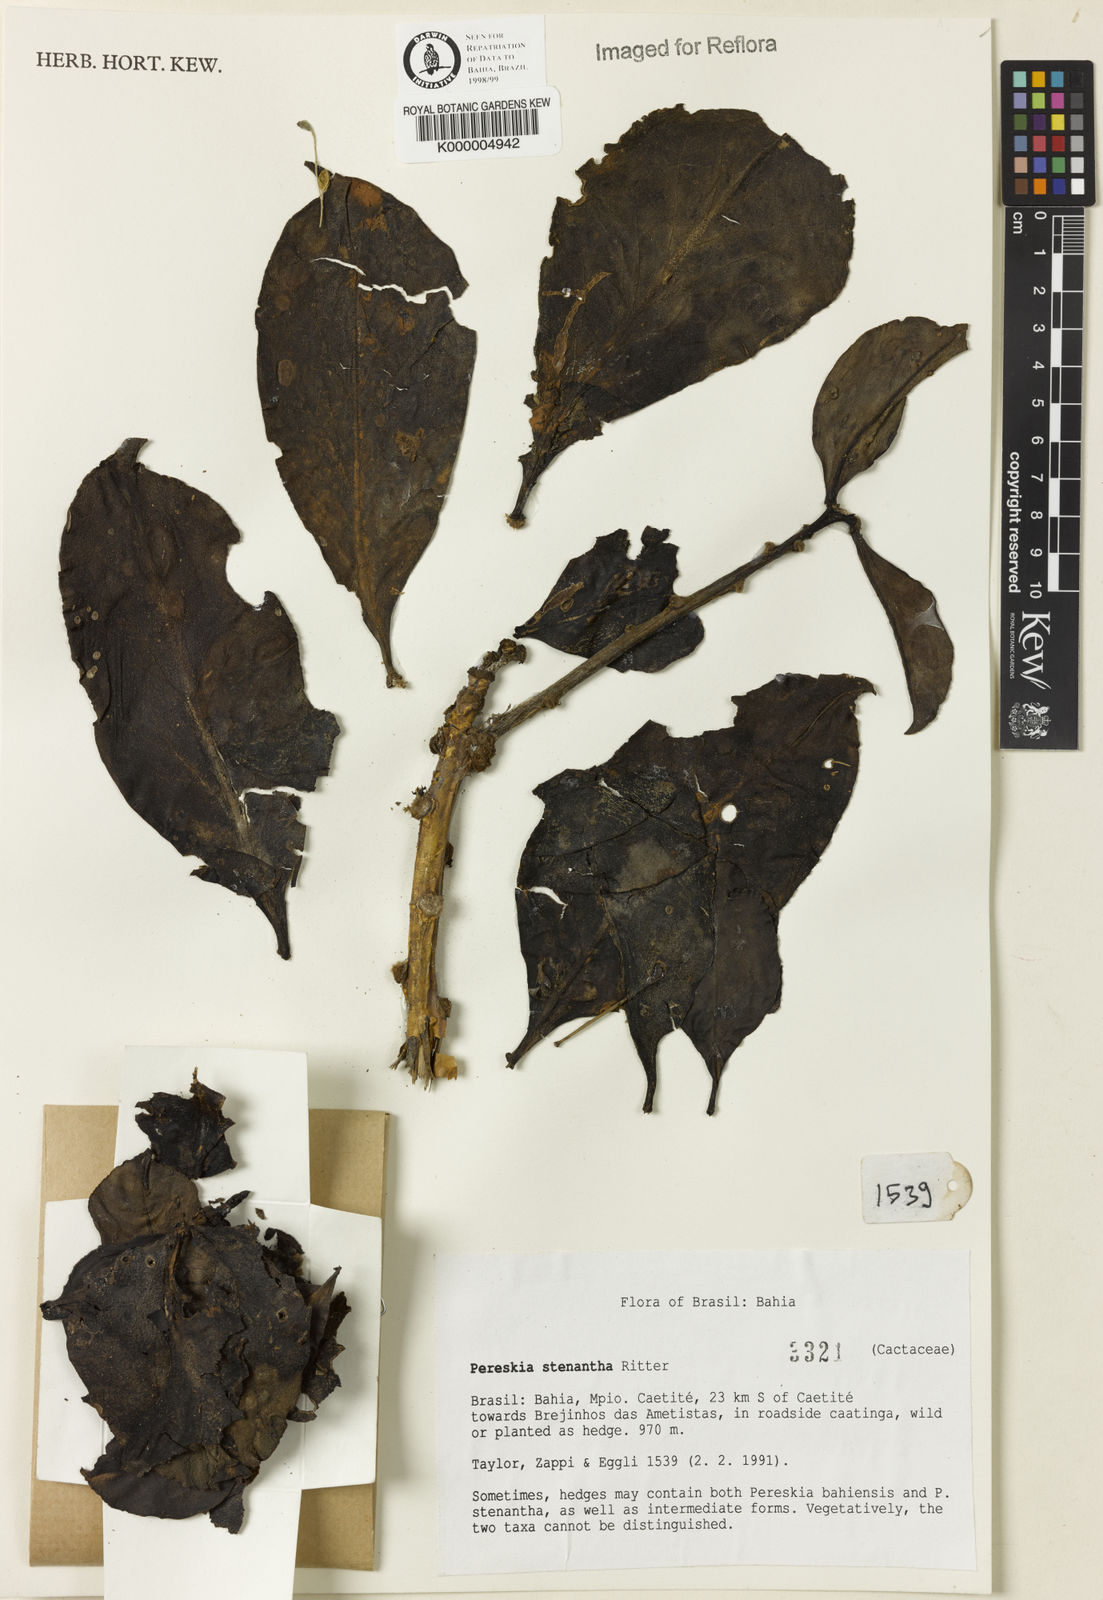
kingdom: Plantae
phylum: Tracheophyta
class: Magnoliopsida
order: Caryophyllales
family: Cactaceae
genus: Pereskia
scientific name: Pereskia stenantha
